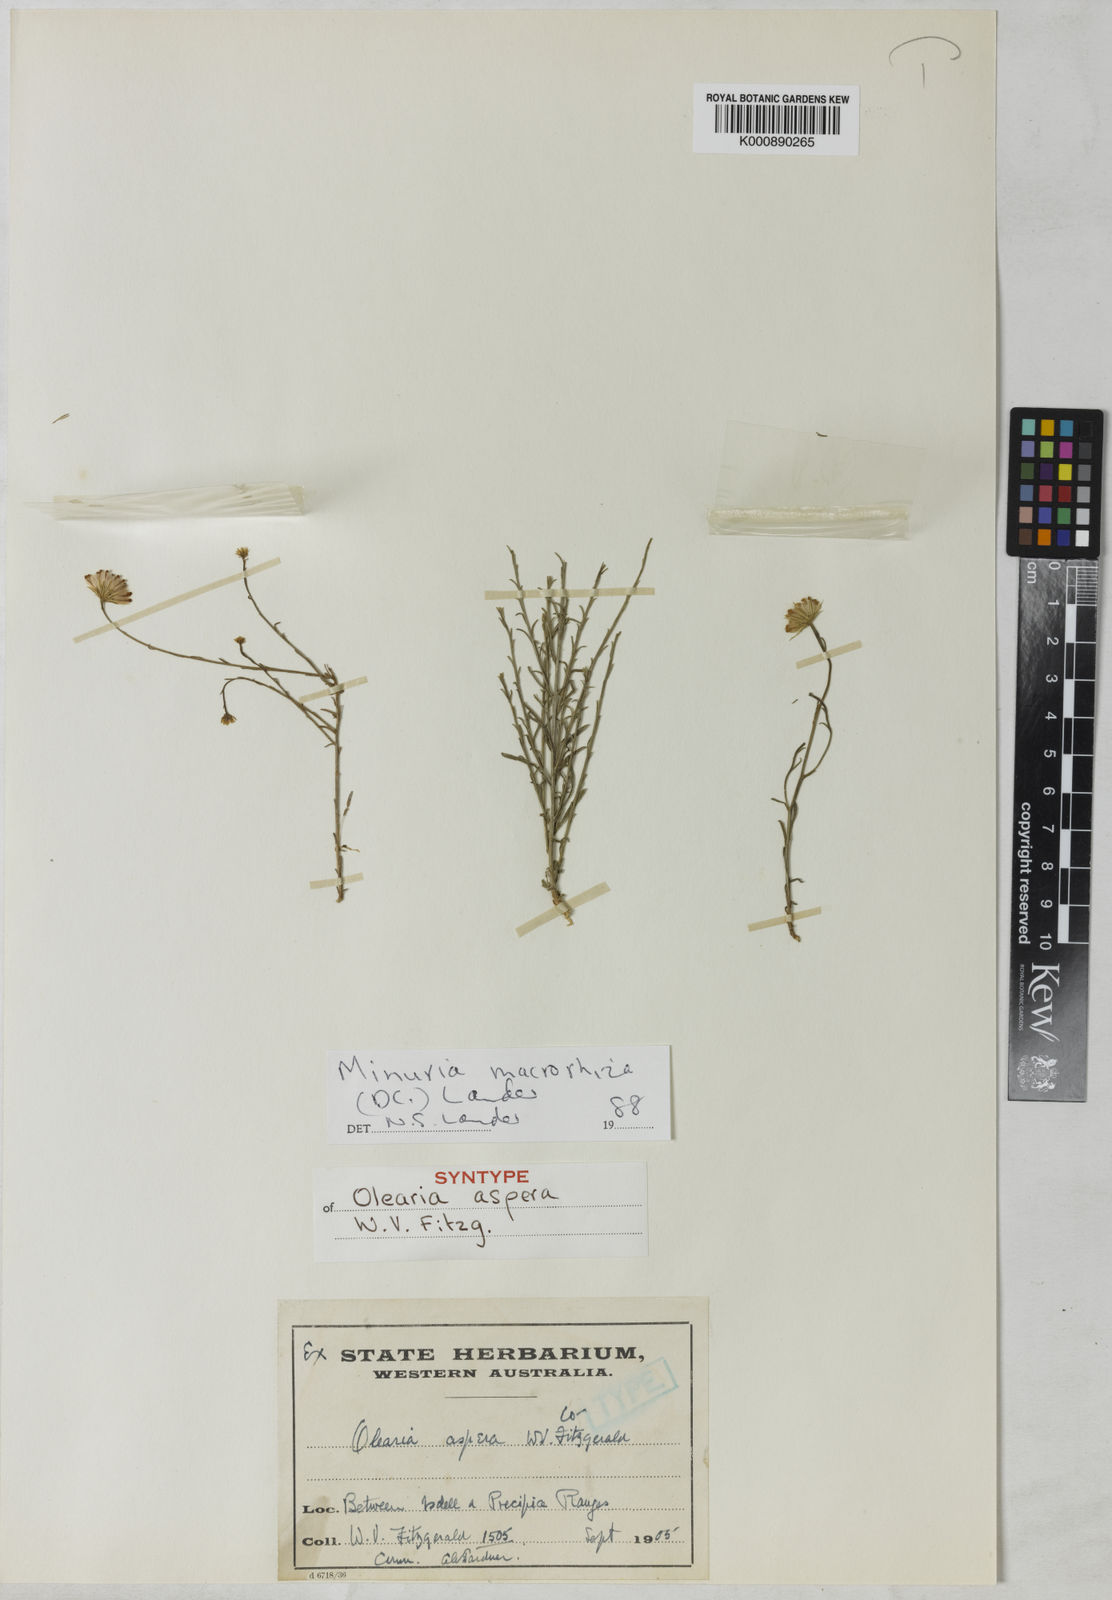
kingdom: Plantae
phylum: Tracheophyta
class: Magnoliopsida
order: Asterales
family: Asteraceae
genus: Minuria
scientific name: Minuria macrorhiza
